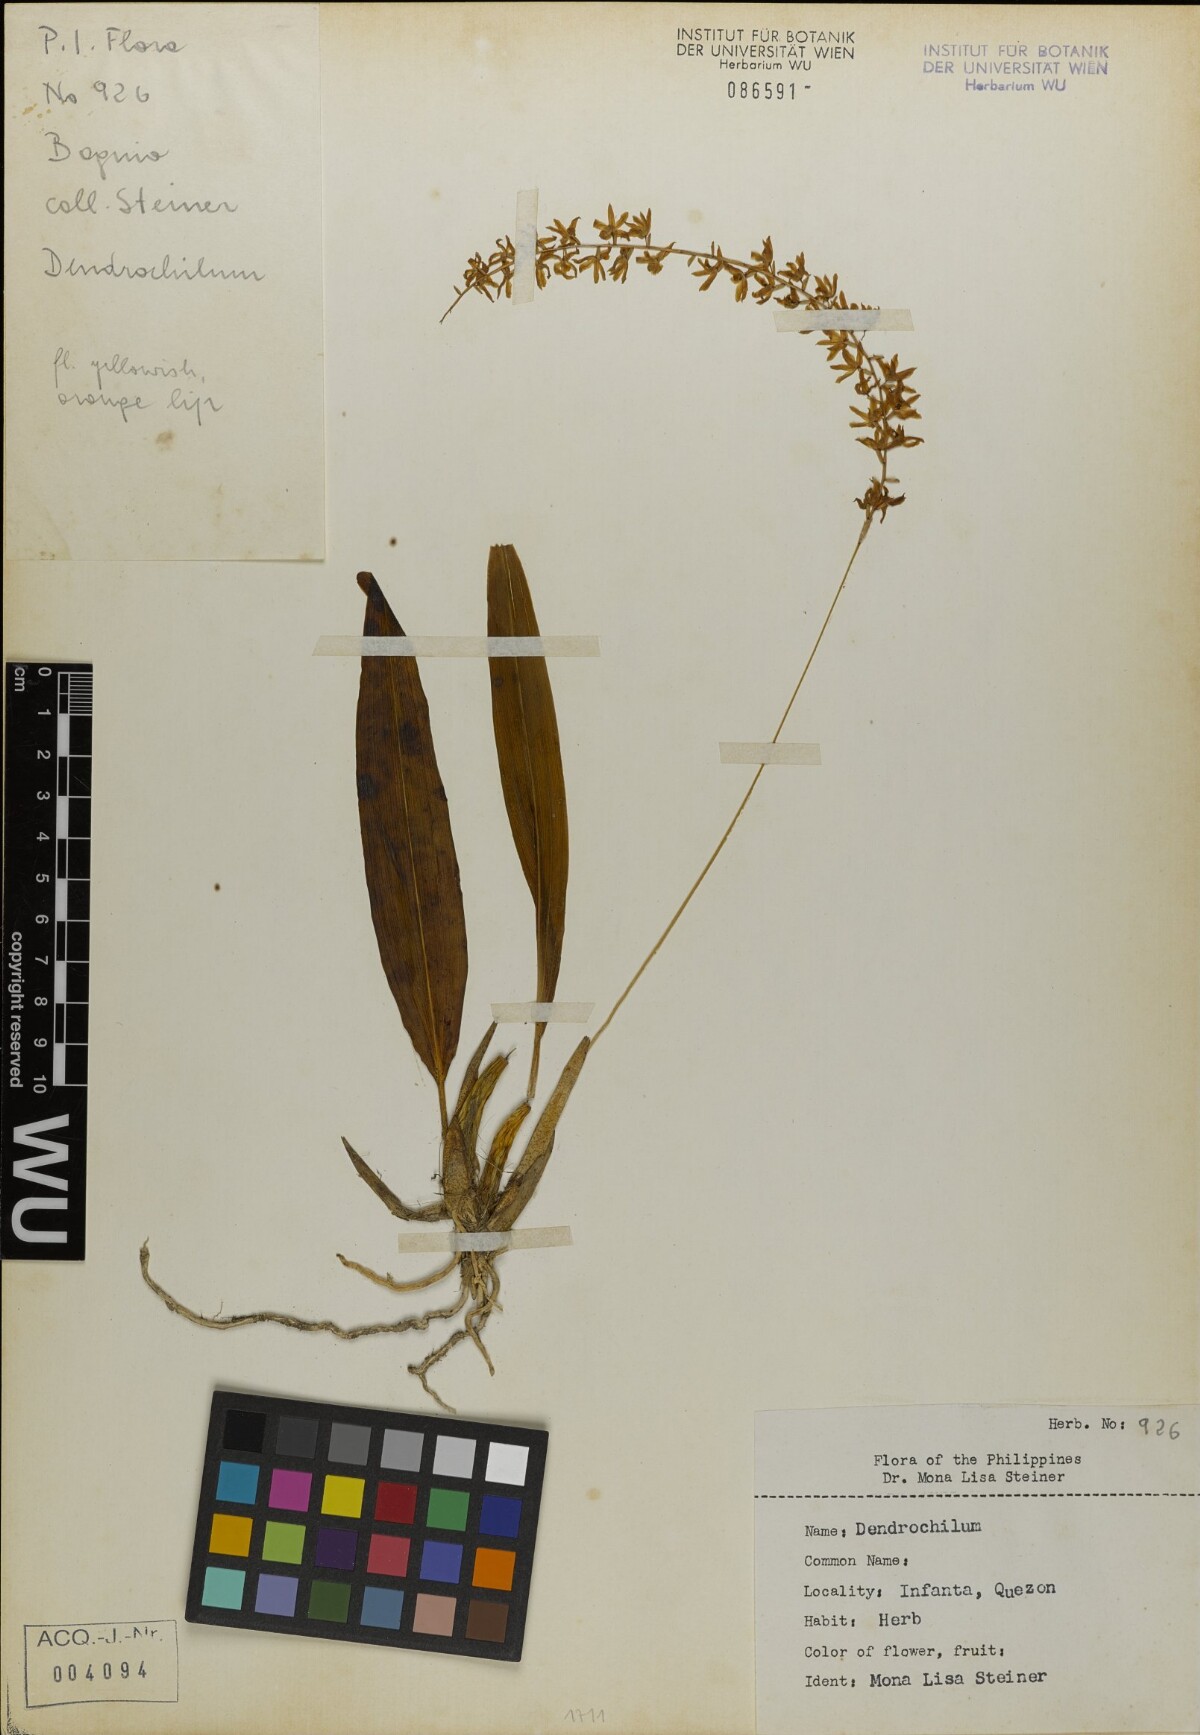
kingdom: Plantae
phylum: Tracheophyta
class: Liliopsida
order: Asparagales
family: Orchidaceae
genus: Coelogyne
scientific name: Coelogyne
